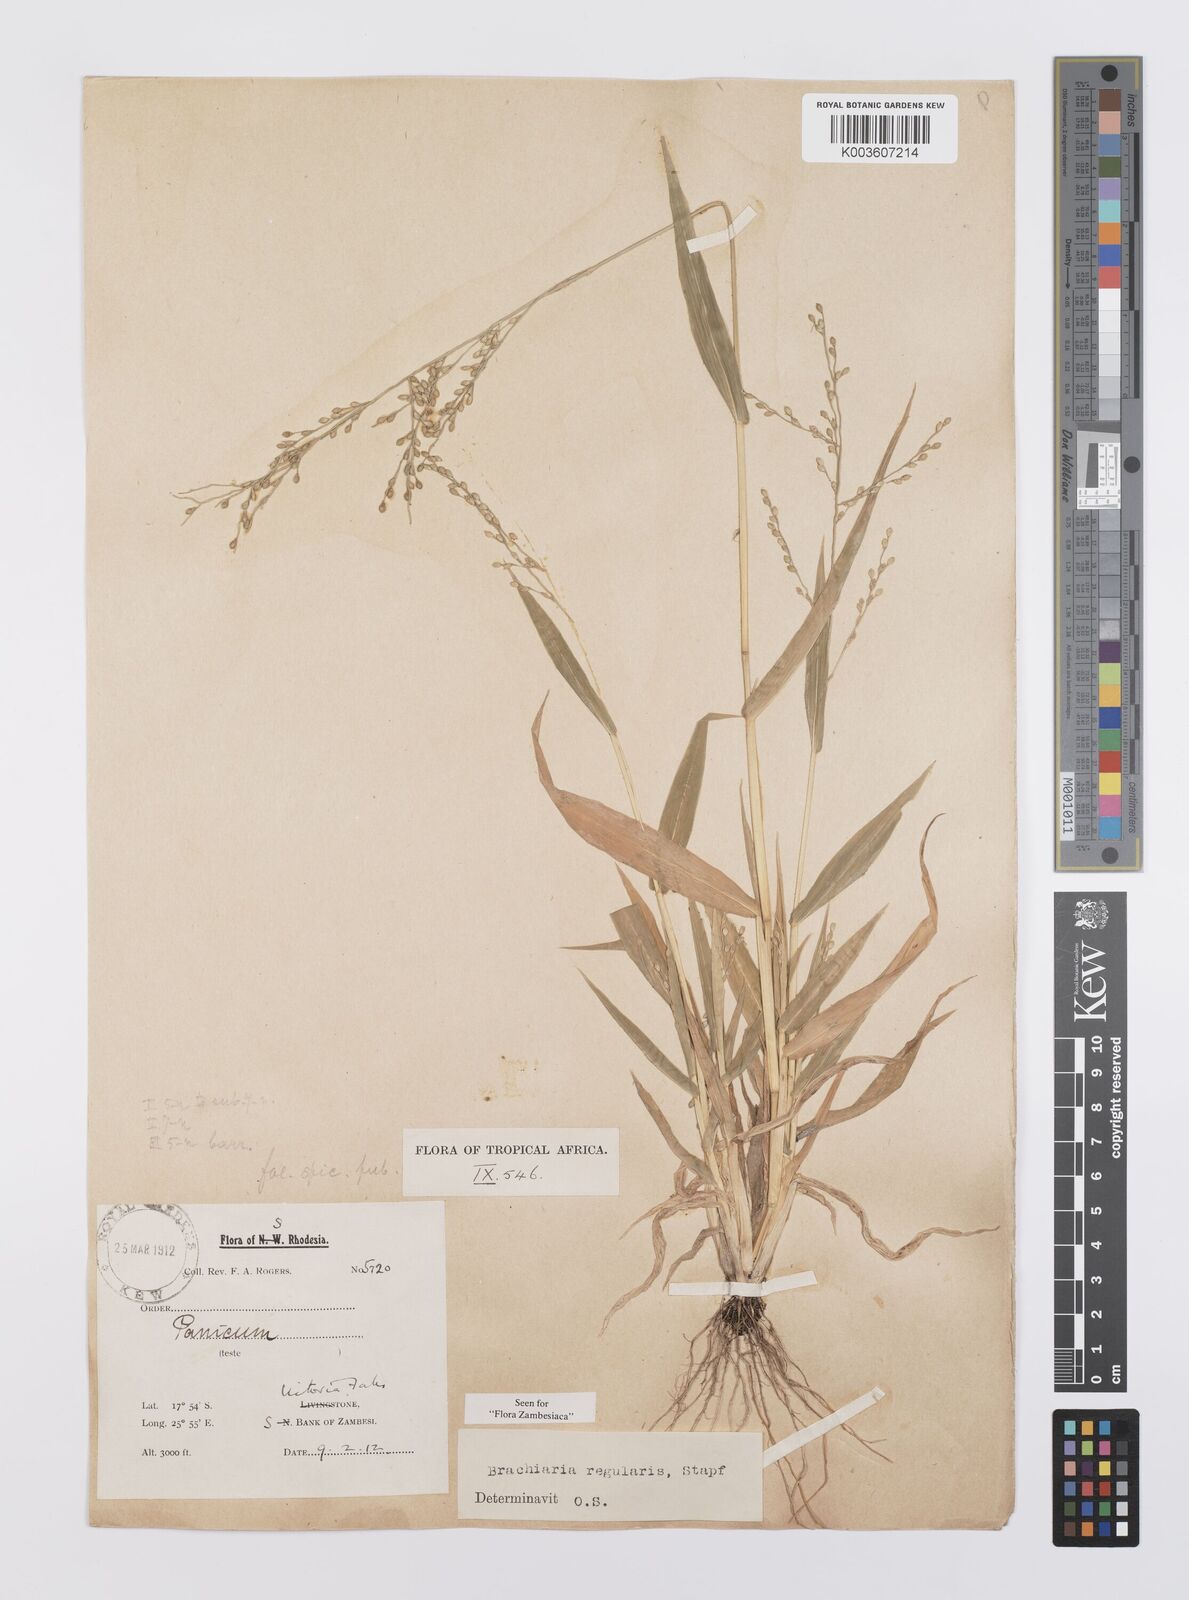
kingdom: Plantae
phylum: Tracheophyta
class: Liliopsida
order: Poales
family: Poaceae
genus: Urochloa
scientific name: Urochloa deflexa
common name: Guinea millet
